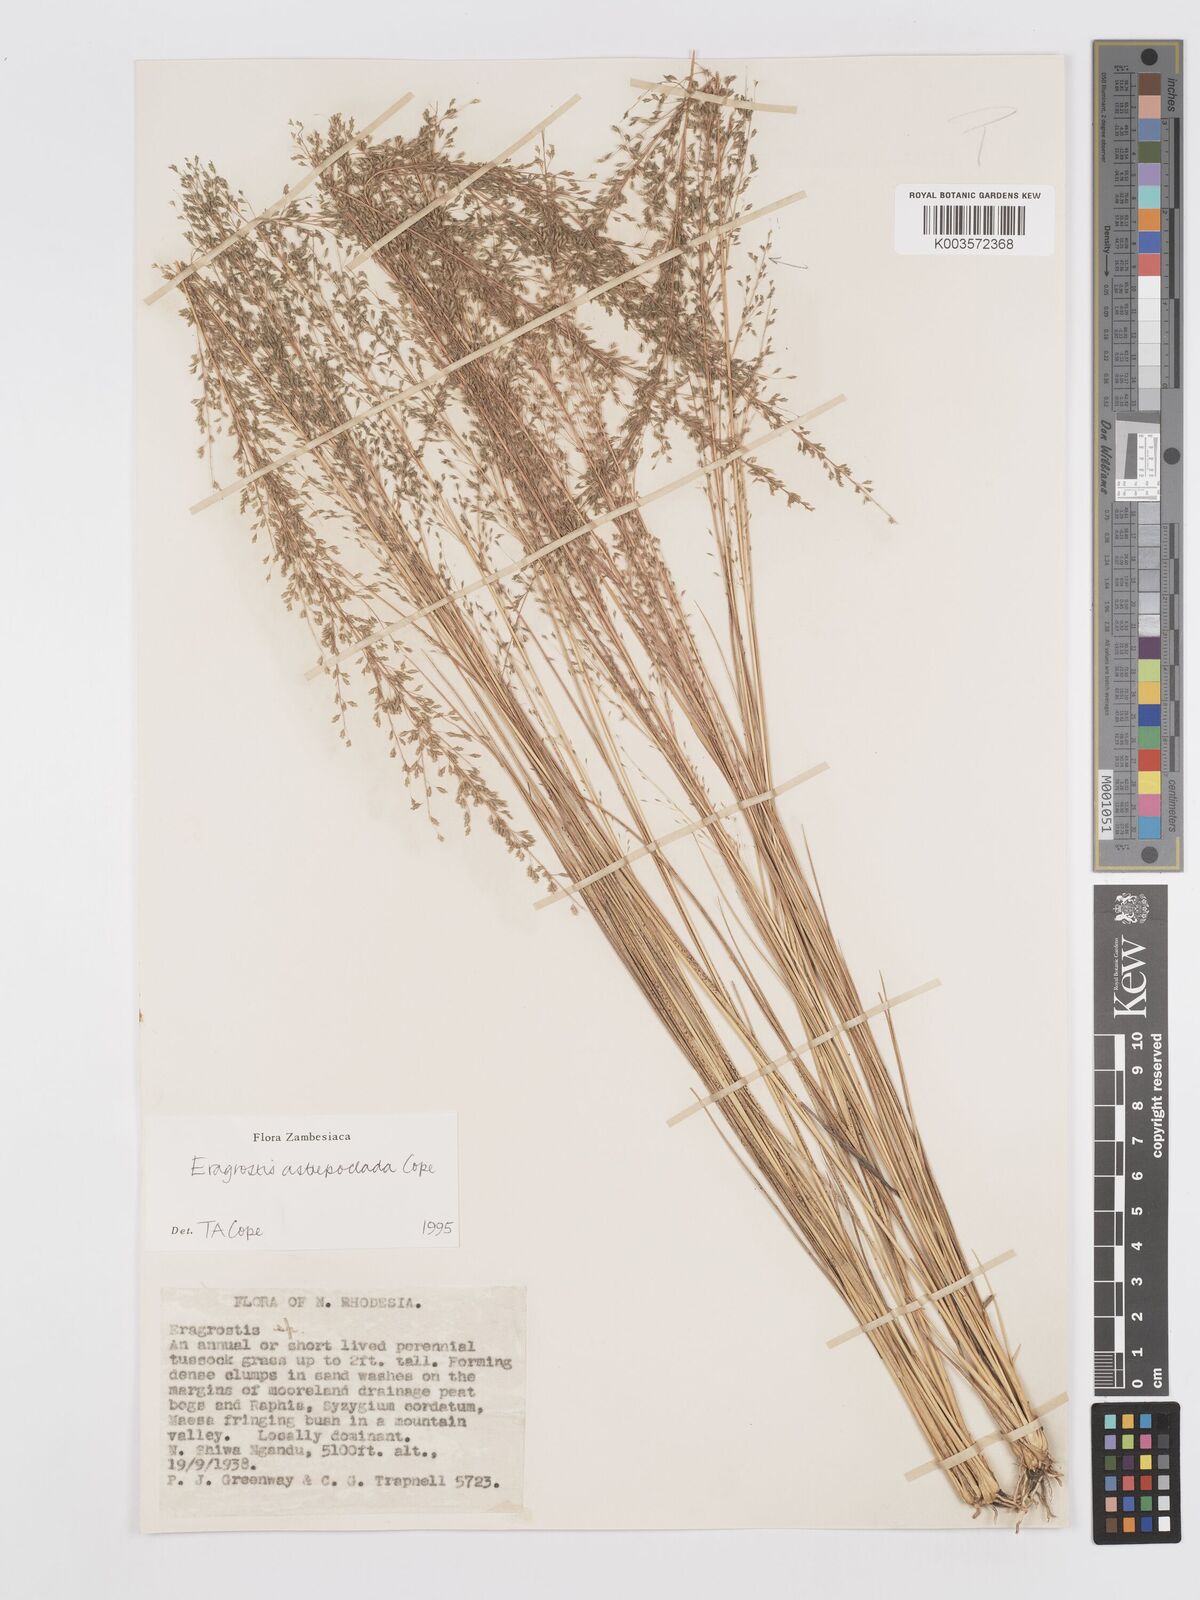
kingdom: Plantae
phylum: Tracheophyta
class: Liliopsida
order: Poales
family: Poaceae
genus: Eragrostis
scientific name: Eragrostis astreptoclada
